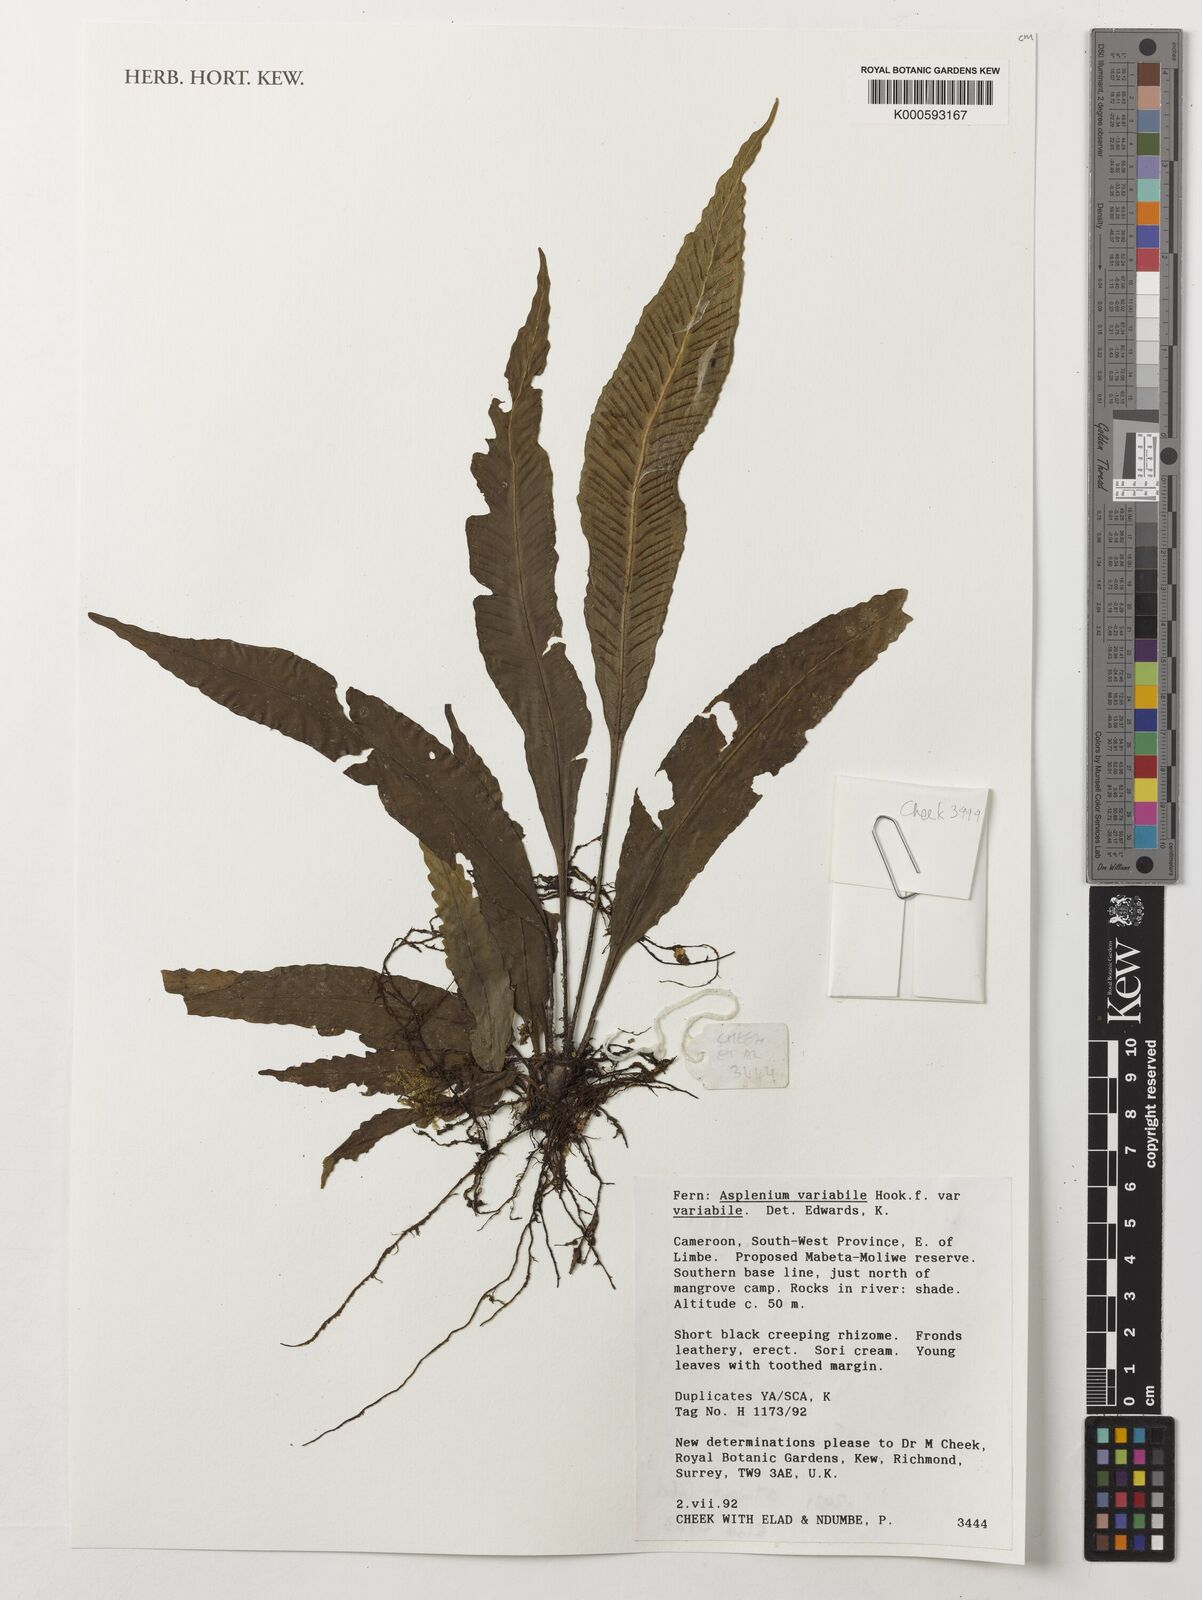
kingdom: Plantae
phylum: Tracheophyta
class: Polypodiopsida
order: Polypodiales
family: Aspleniaceae
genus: Asplenium
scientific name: Asplenium variabile
